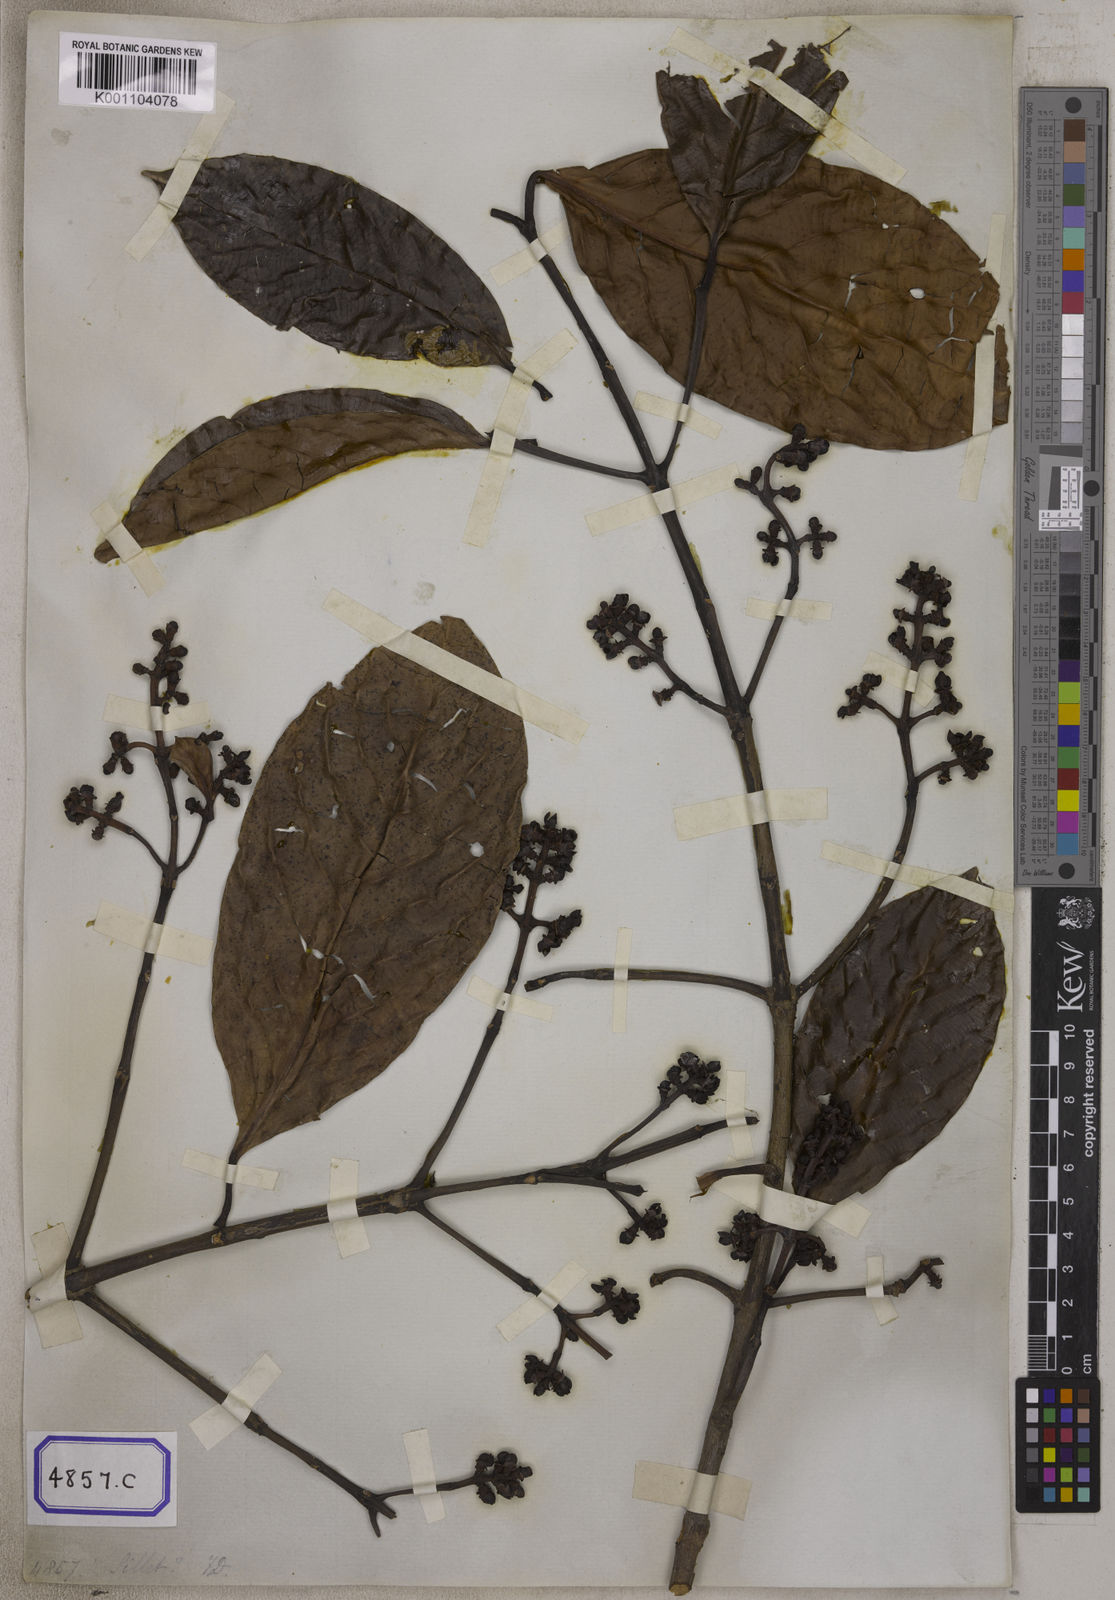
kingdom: Plantae
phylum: Tracheophyta
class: Magnoliopsida
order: Malpighiales
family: Clusiaceae
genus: Garcinia
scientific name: Garcinia
